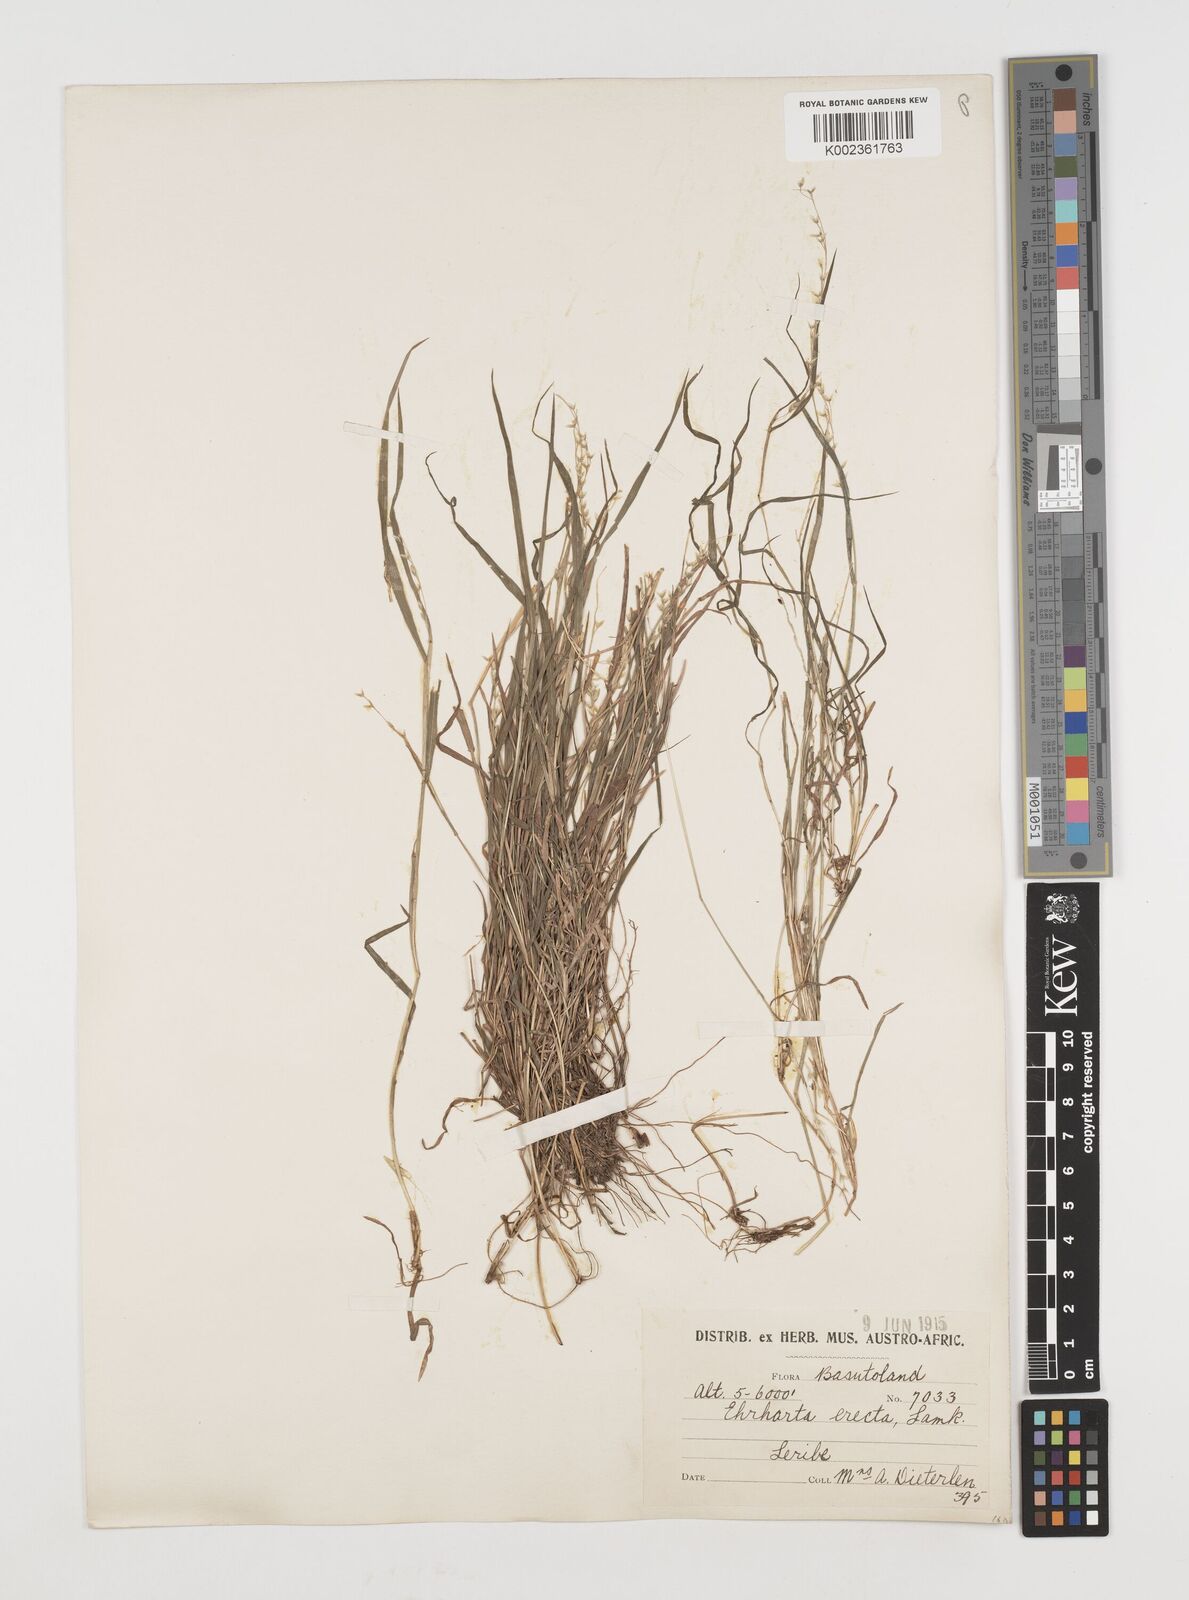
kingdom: Plantae
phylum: Tracheophyta
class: Liliopsida
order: Poales
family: Poaceae
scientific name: Poaceae
